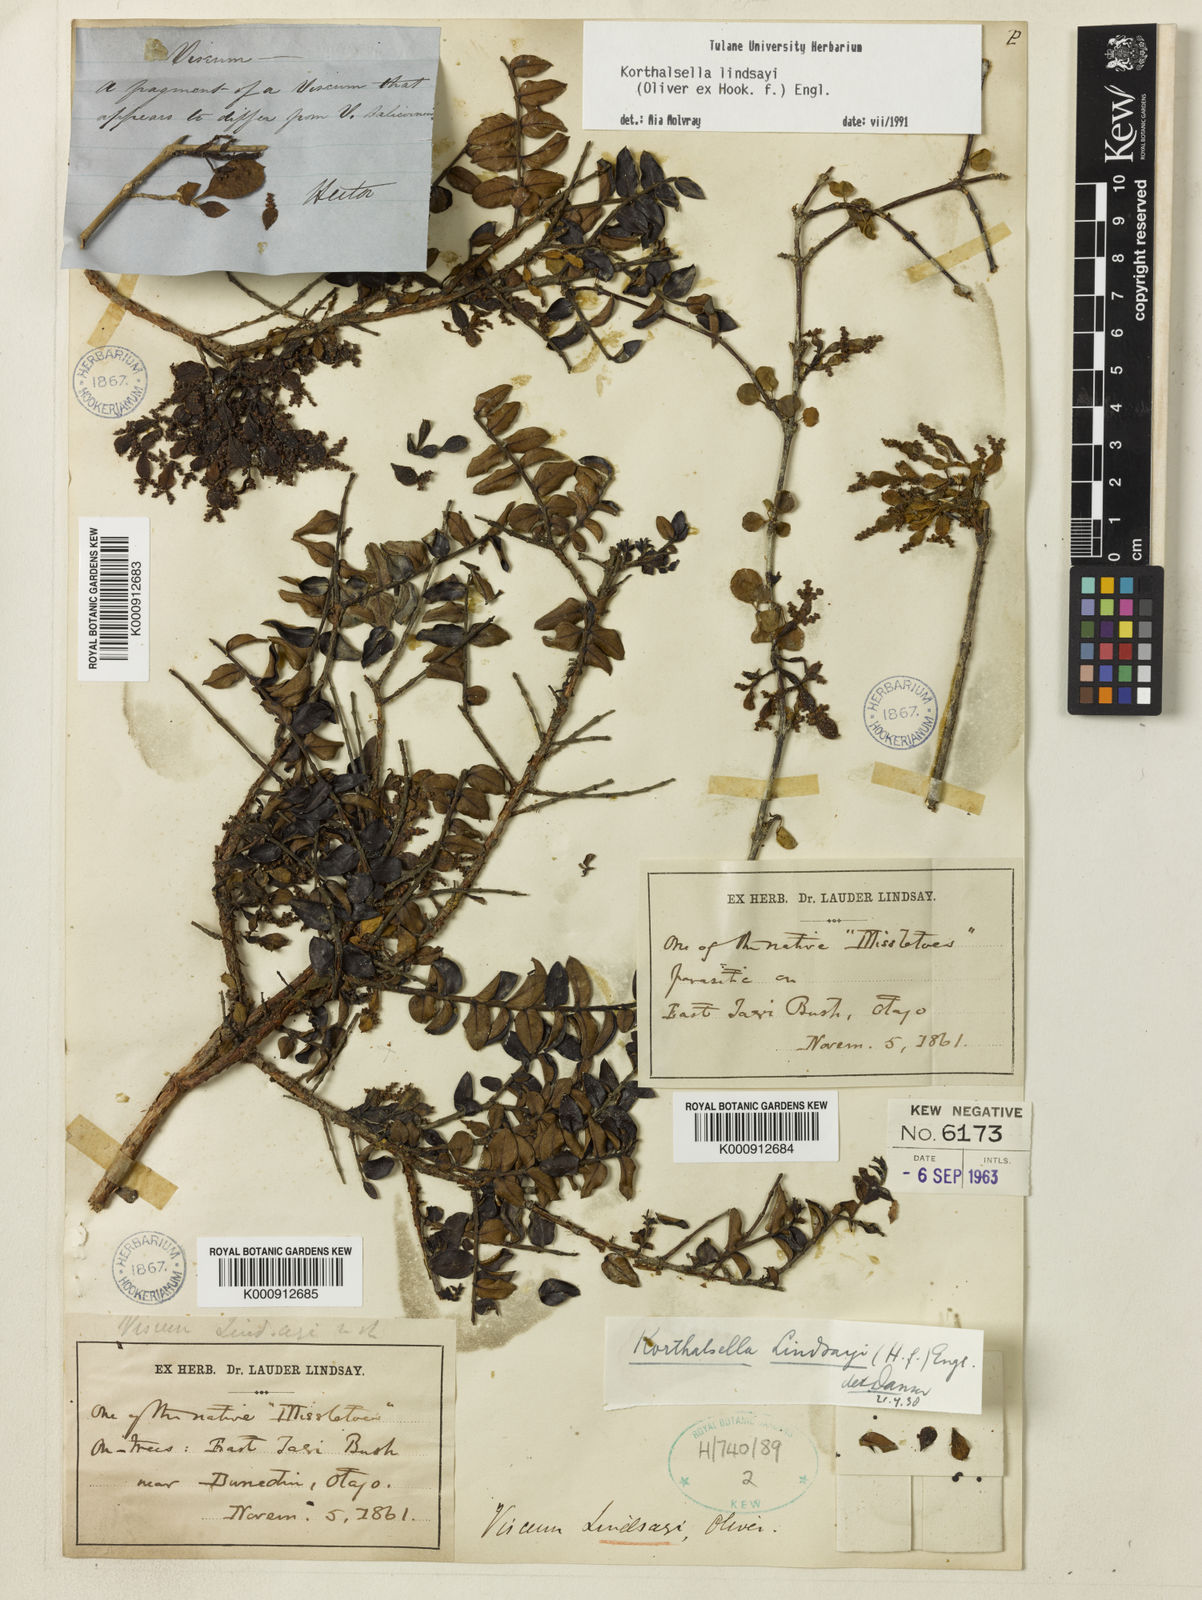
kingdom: Plantae
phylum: Tracheophyta
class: Magnoliopsida
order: Santalales
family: Viscaceae
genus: Korthalsella
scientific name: Korthalsella lindsayi
